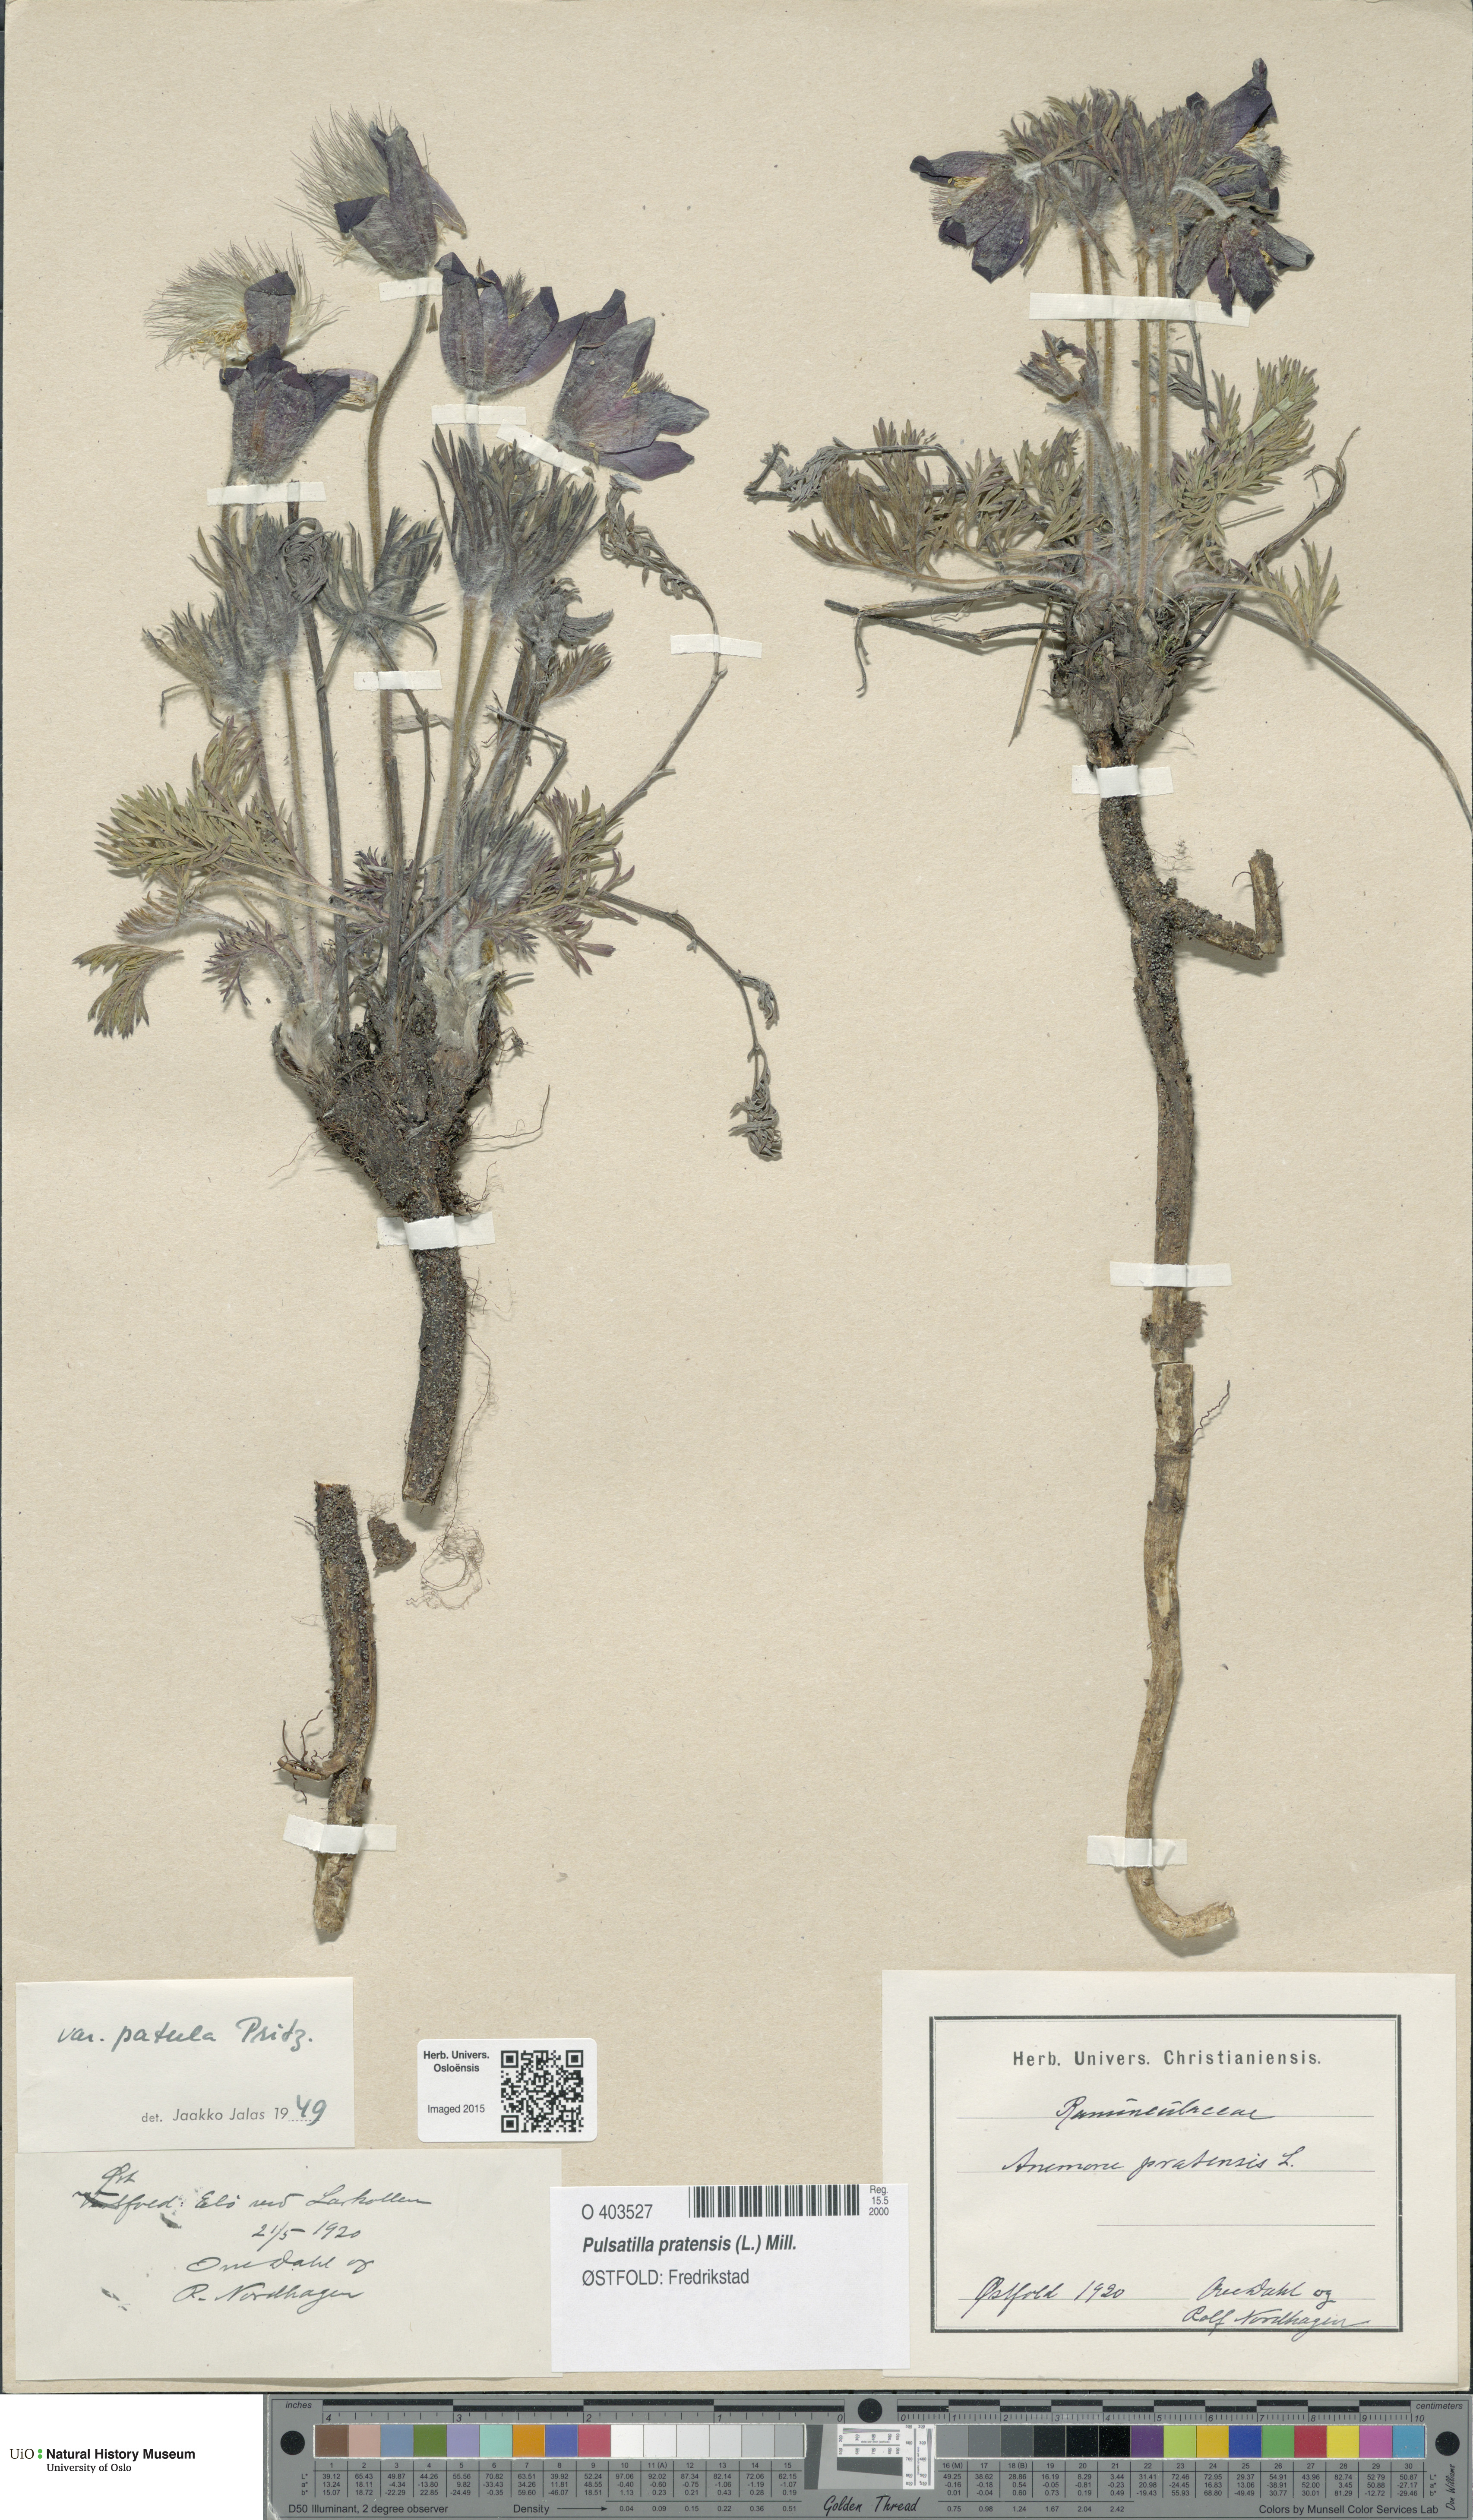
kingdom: Plantae
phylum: Tracheophyta
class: Magnoliopsida
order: Ranunculales
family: Ranunculaceae
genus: Pulsatilla
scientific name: Pulsatilla pratensis
